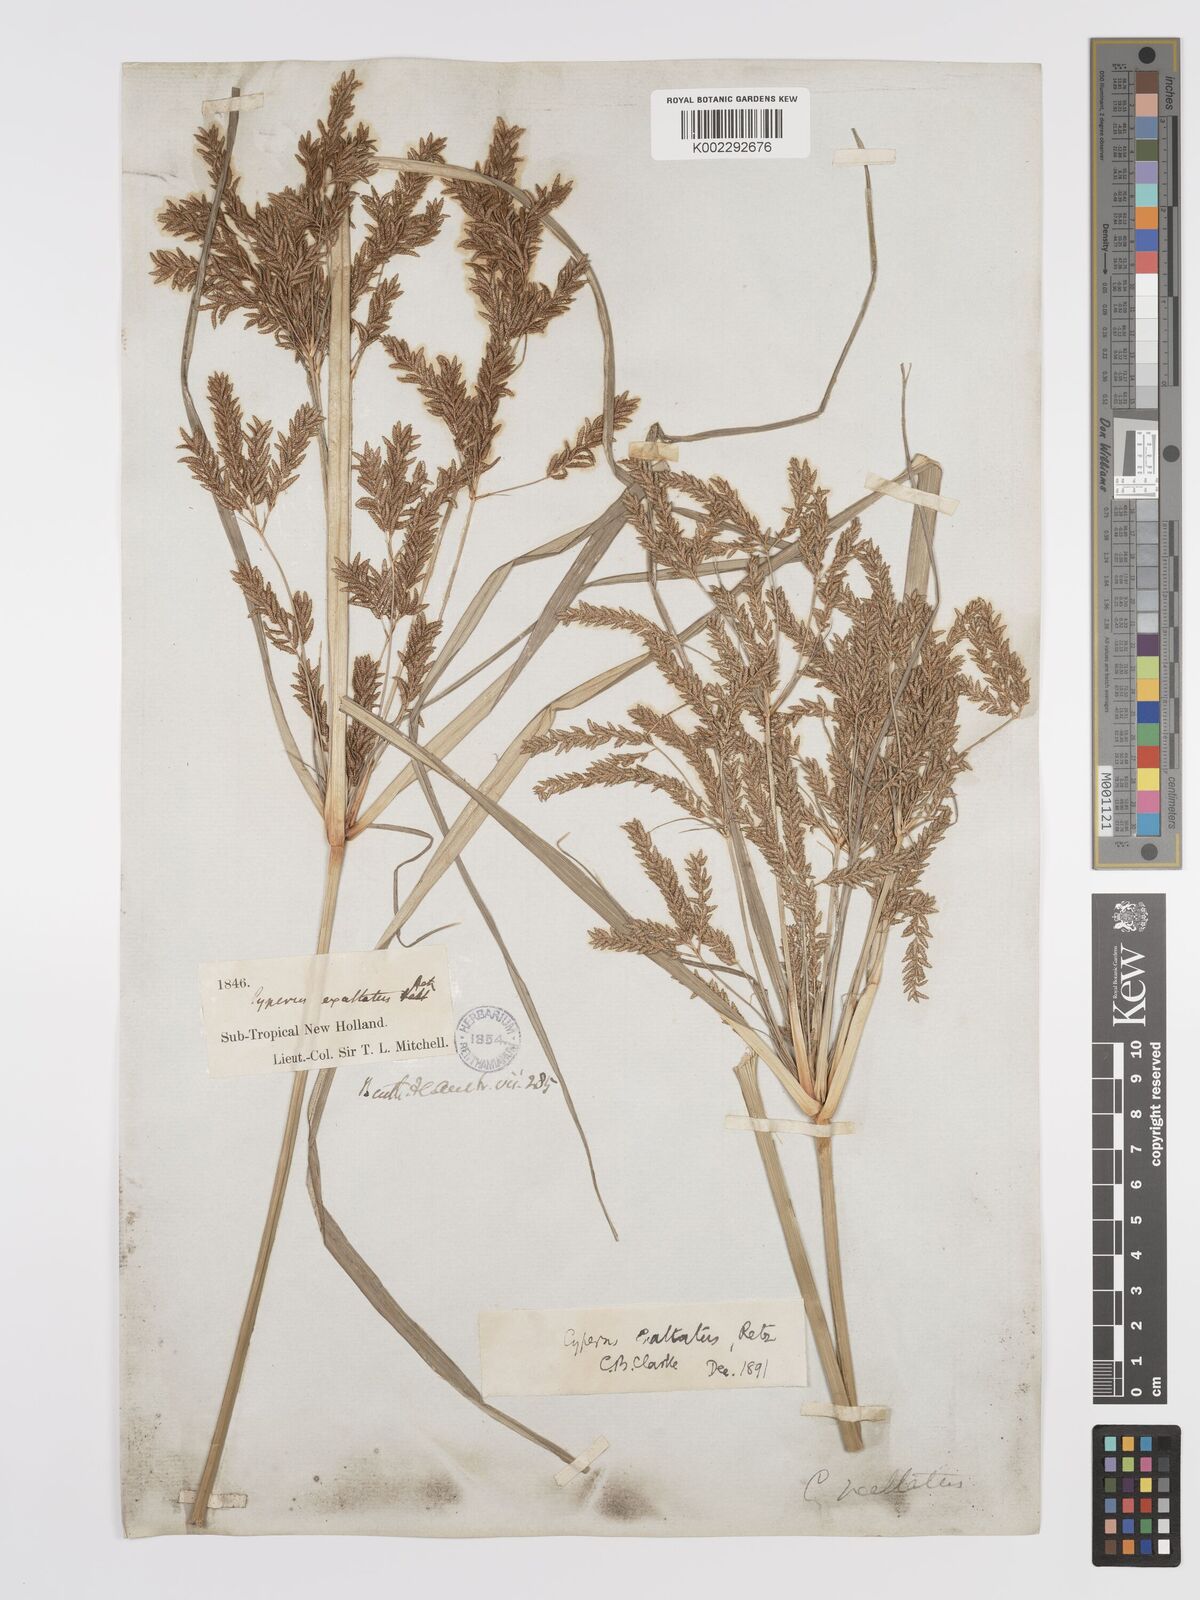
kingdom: Plantae
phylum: Tracheophyta
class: Liliopsida
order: Poales
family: Cyperaceae
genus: Cyperus
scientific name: Cyperus exaltatus
